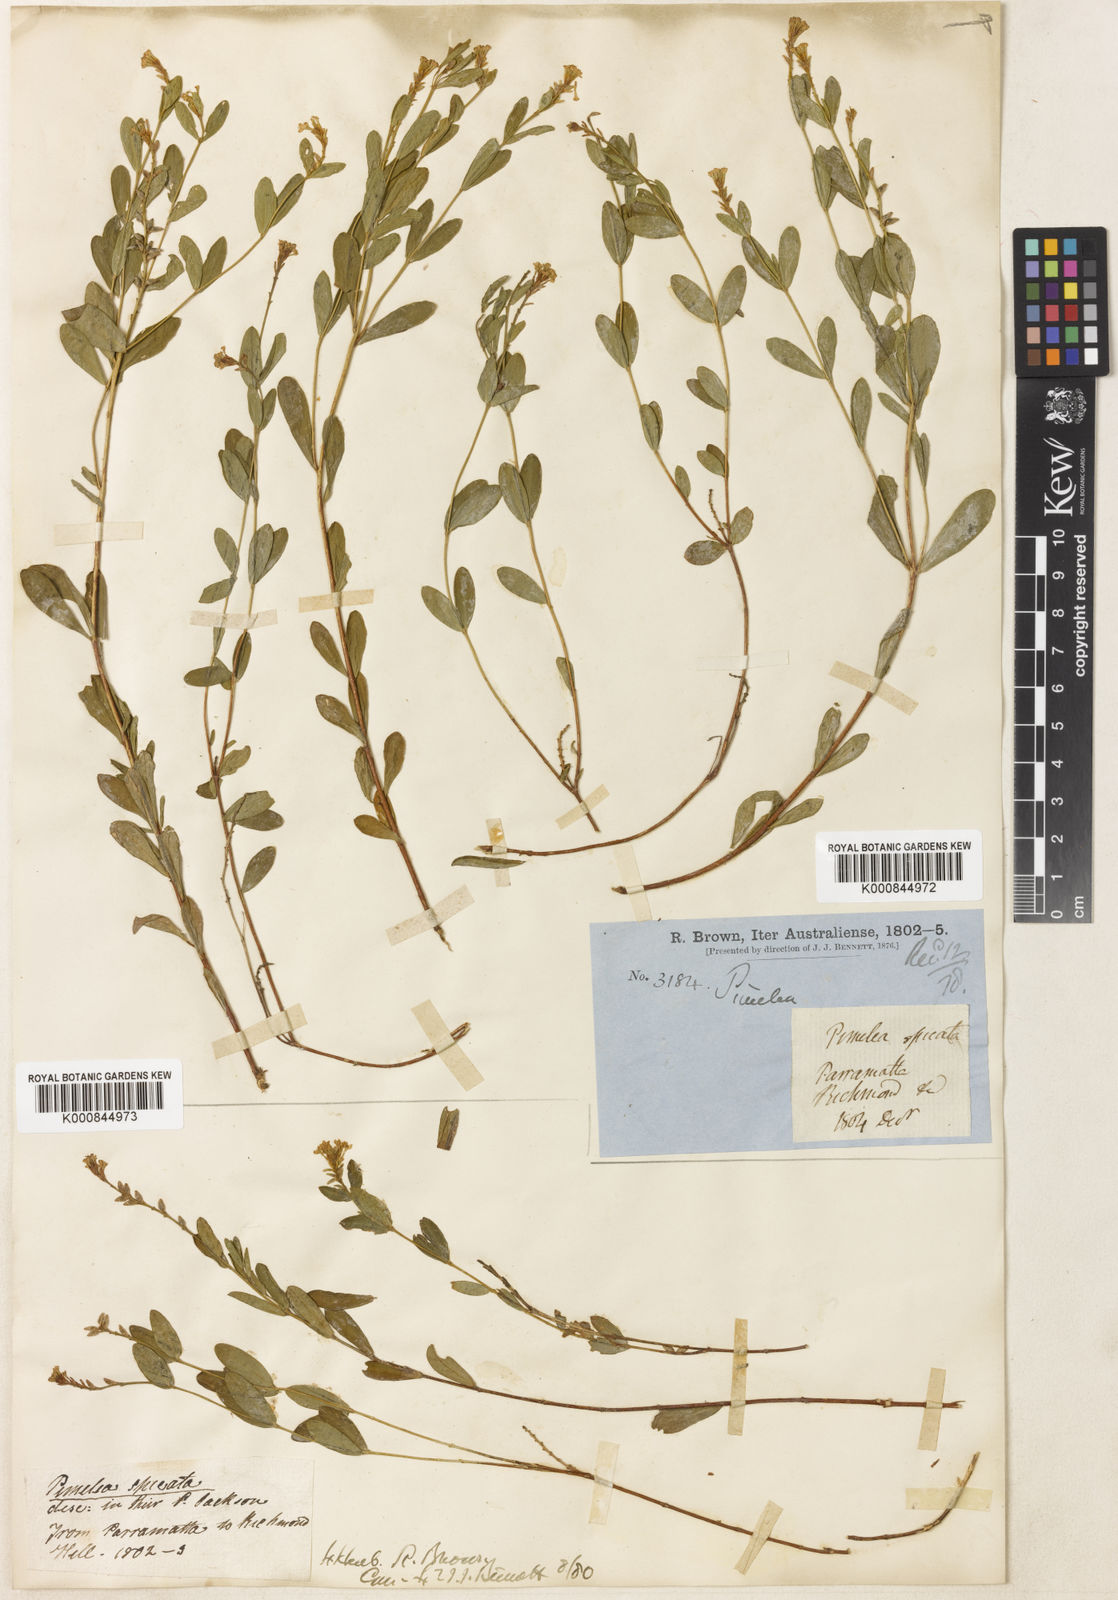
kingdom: Plantae
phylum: Tracheophyta
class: Magnoliopsida
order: Malvales
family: Thymelaeaceae
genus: Pimelea
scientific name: Pimelea spicata
